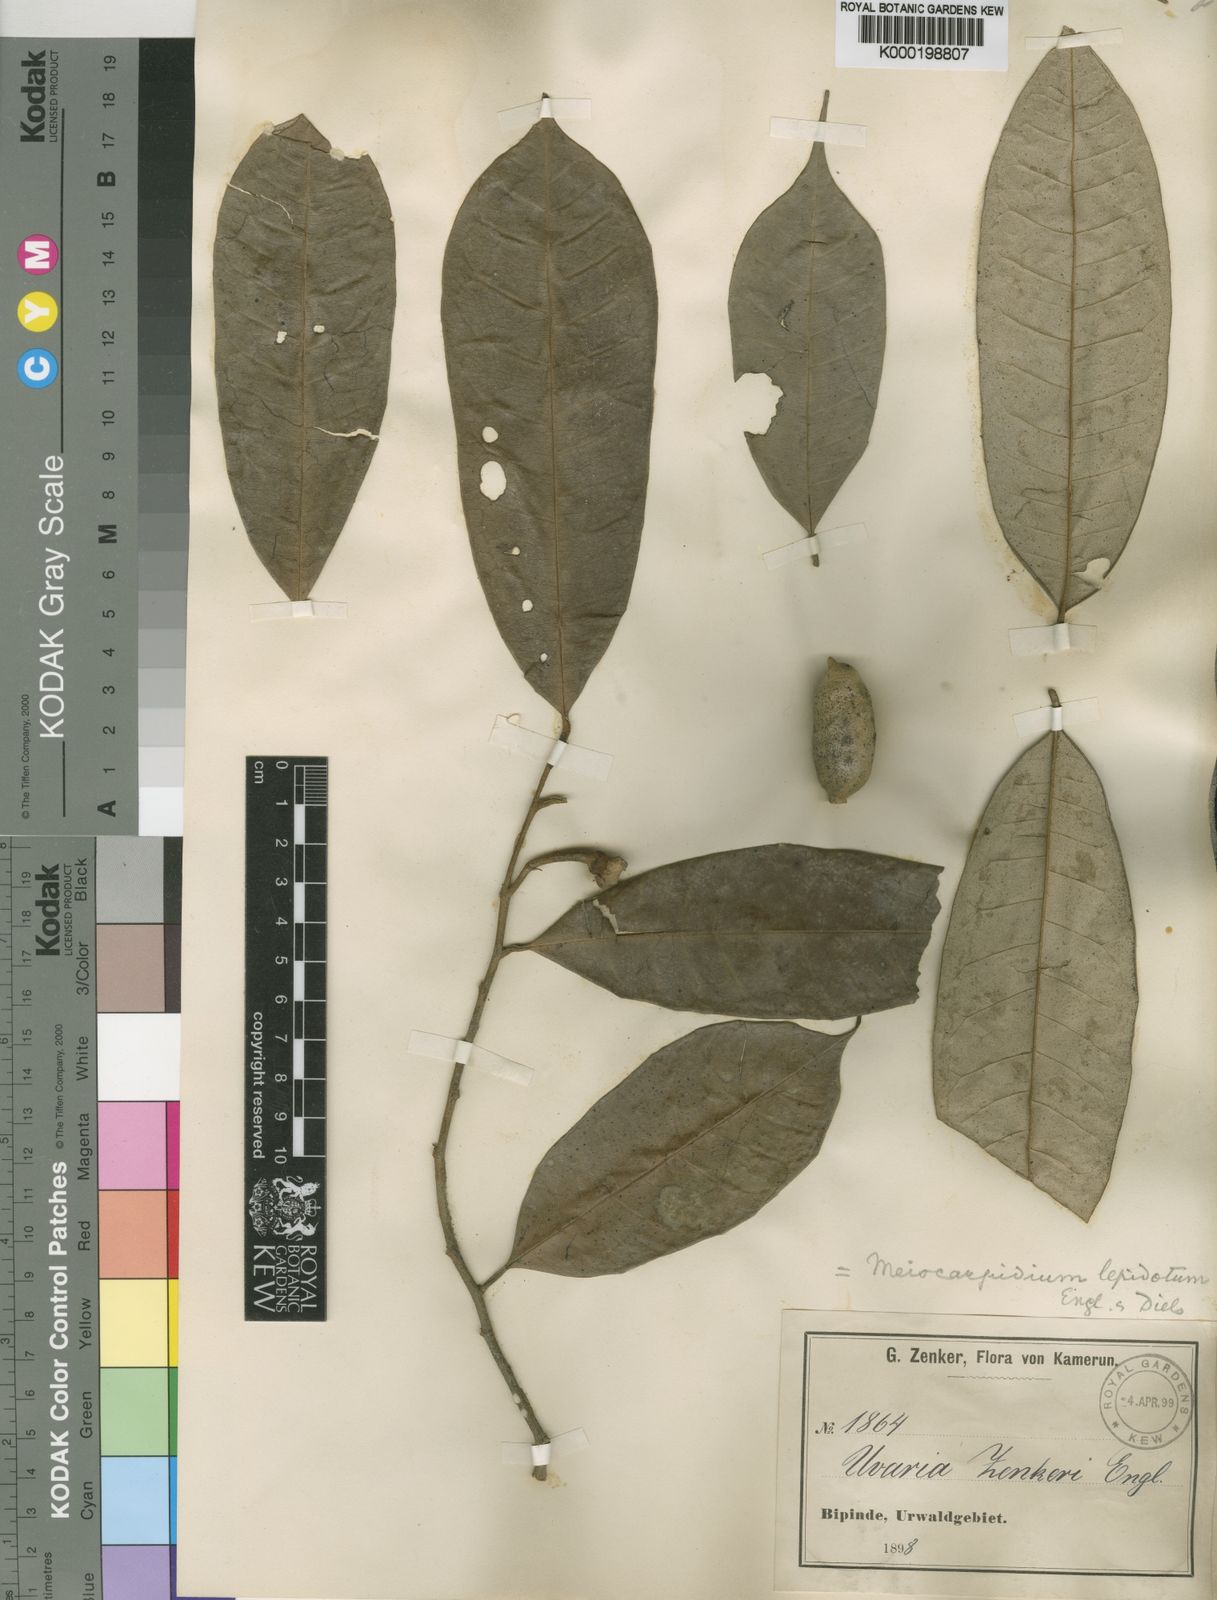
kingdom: Plantae
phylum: Tracheophyta
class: Magnoliopsida
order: Magnoliales
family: Annonaceae
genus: Meiocarpidium
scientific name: Meiocarpidium lepidotum
